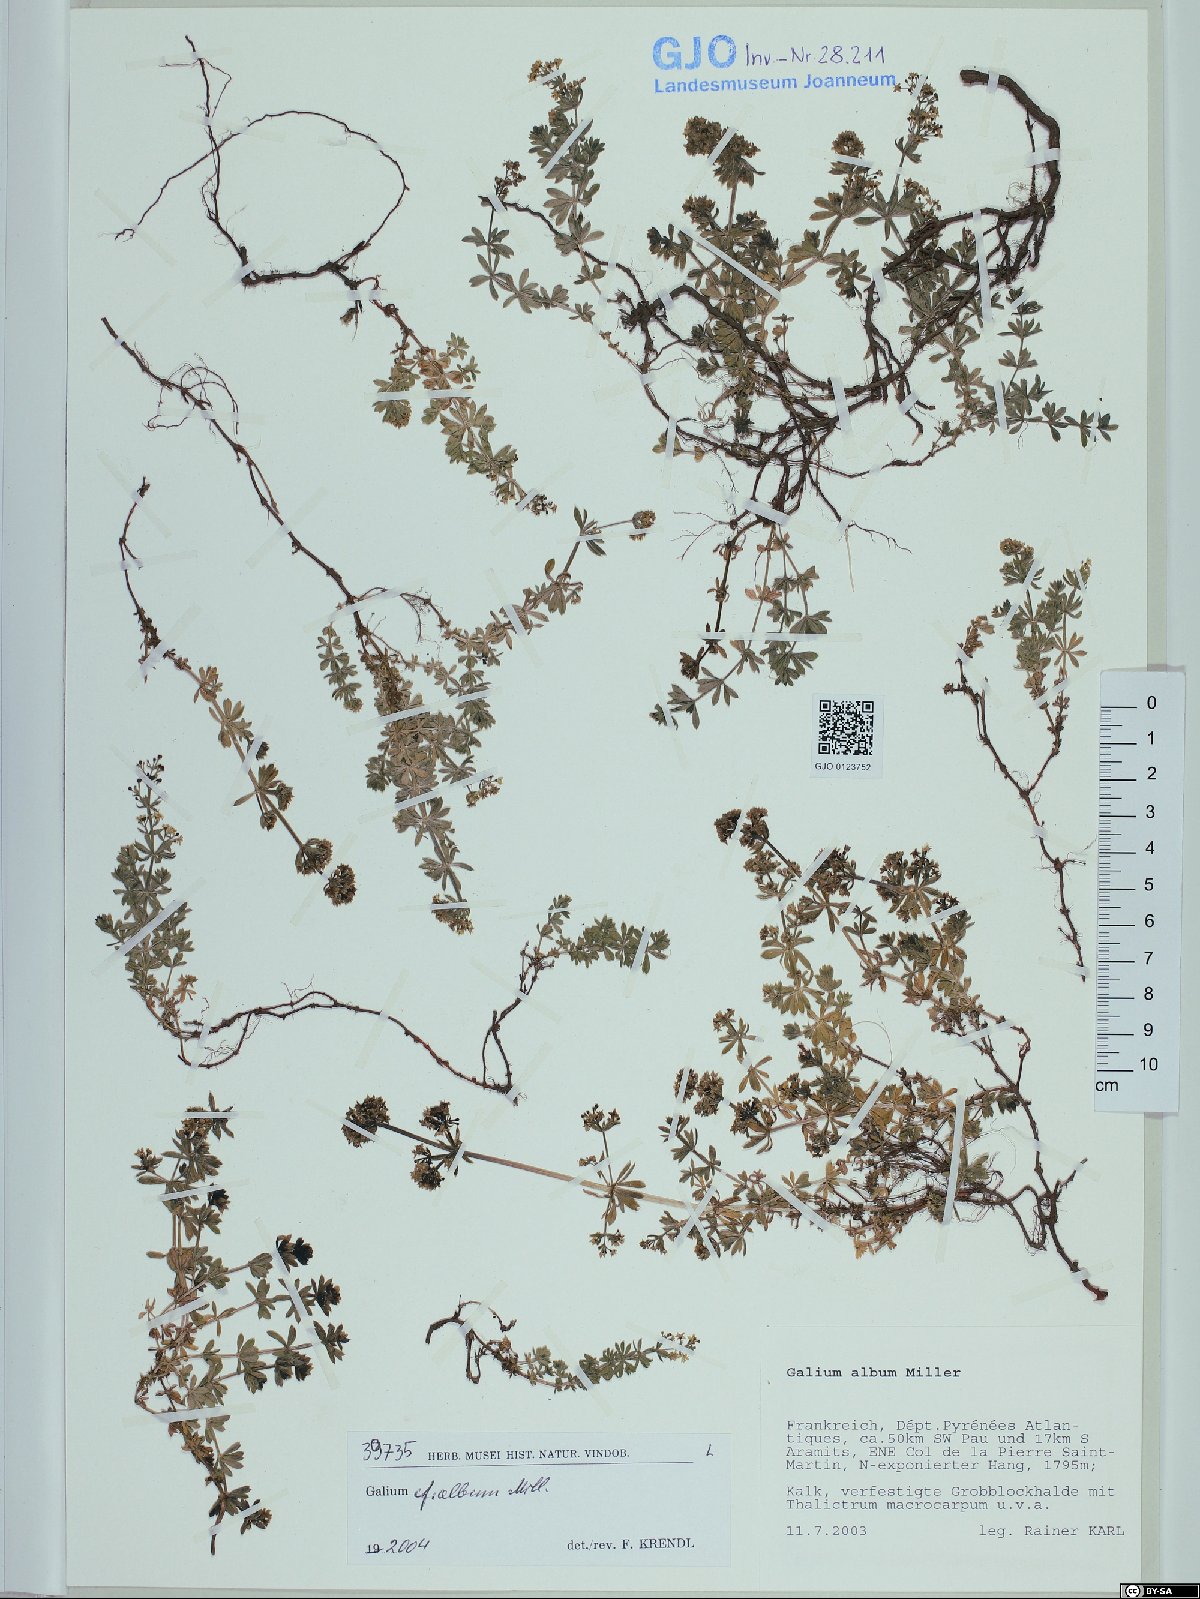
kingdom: Plantae
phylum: Tracheophyta
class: Magnoliopsida
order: Gentianales
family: Rubiaceae
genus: Galium
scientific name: Galium album
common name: White bedstraw
